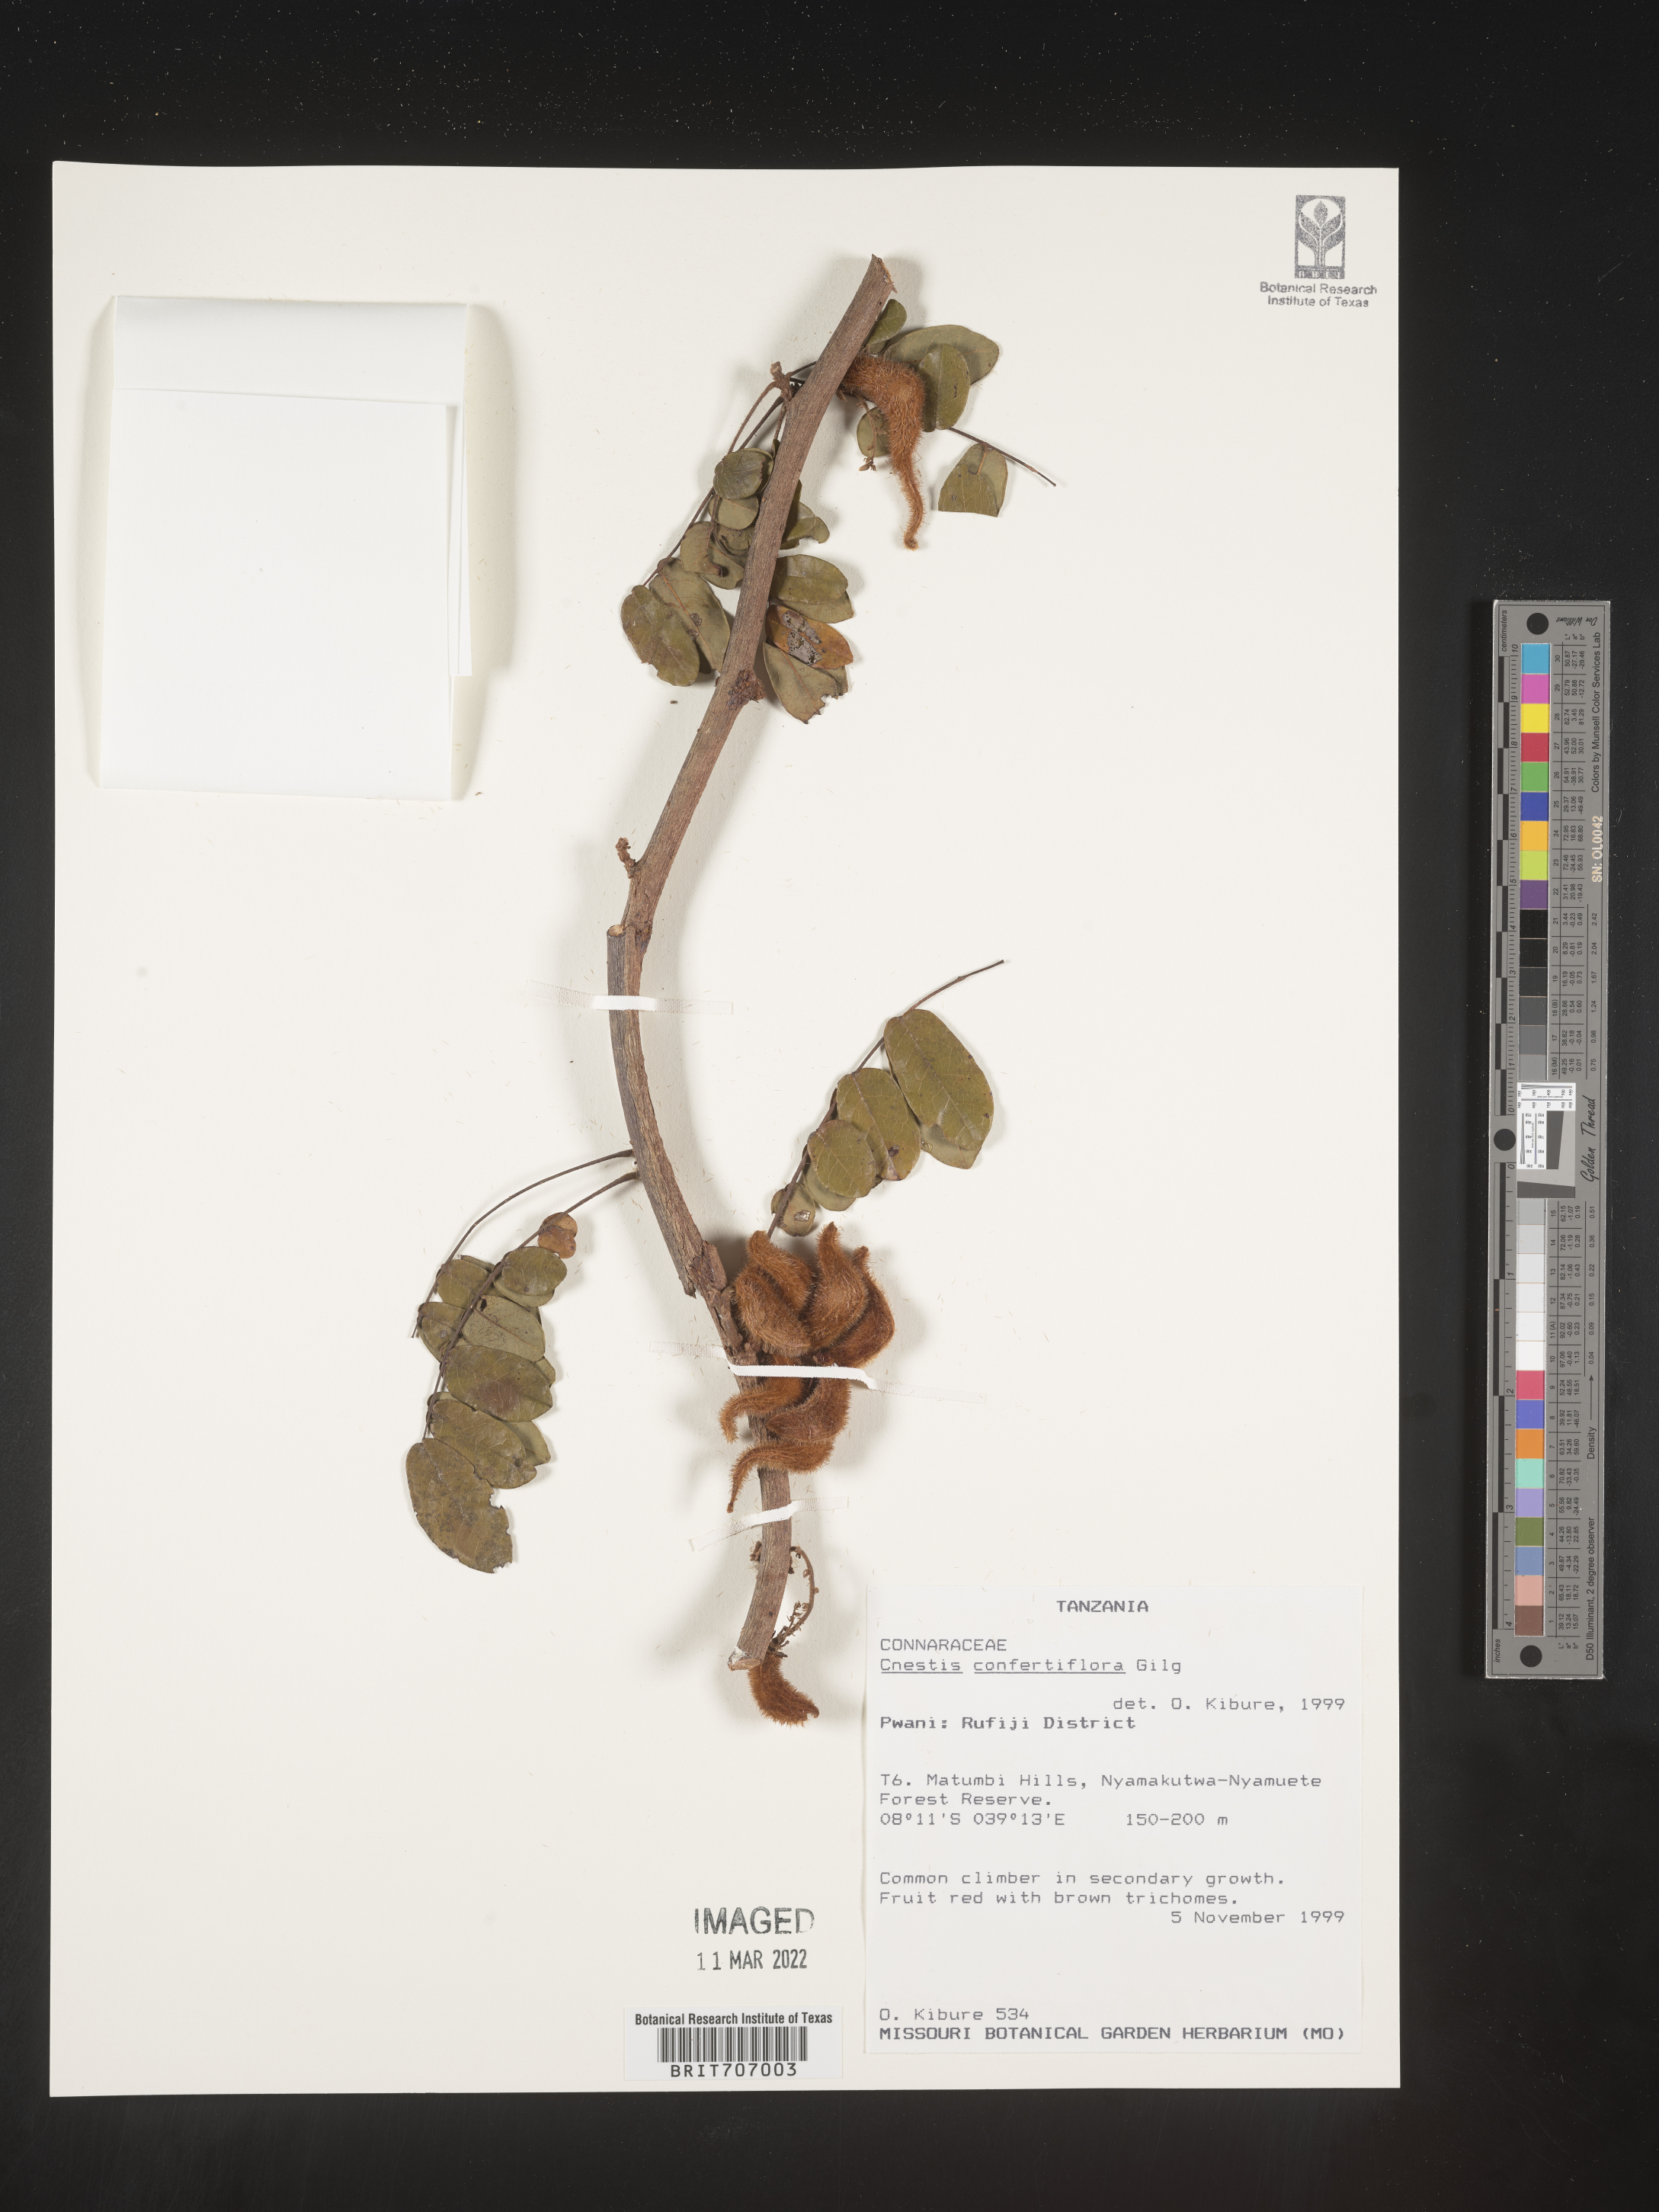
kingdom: Plantae
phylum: Tracheophyta
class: Magnoliopsida
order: Oxalidales
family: Connaraceae
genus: Cnestis
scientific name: Cnestis
